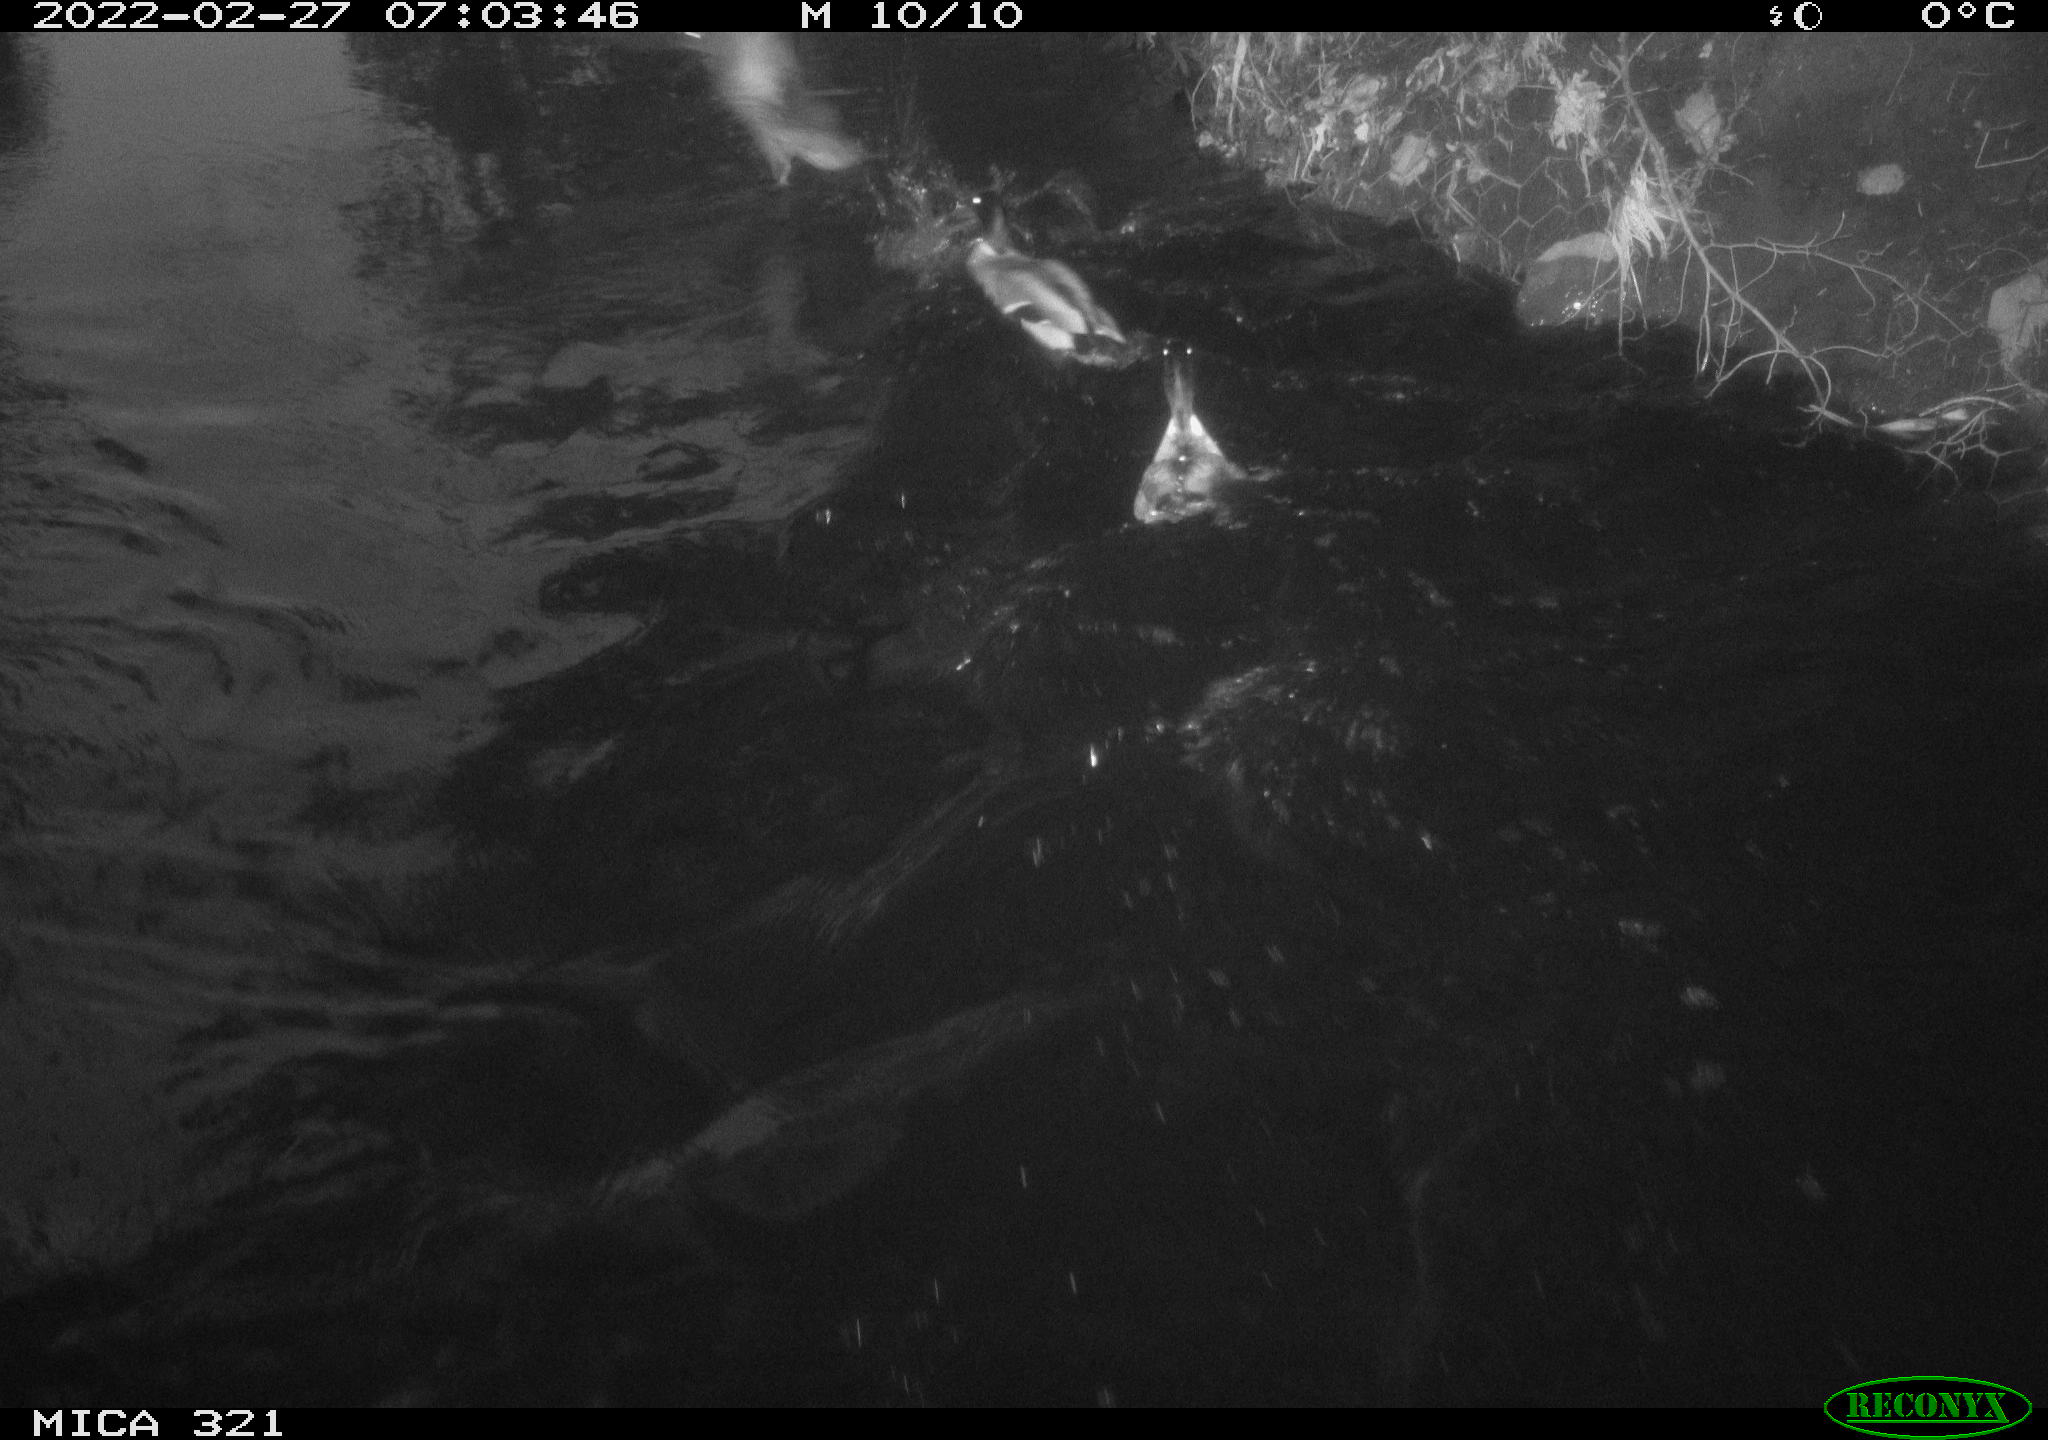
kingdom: Animalia
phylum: Chordata
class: Aves
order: Anseriformes
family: Anatidae
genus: Anas
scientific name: Anas platyrhynchos
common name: Mallard
